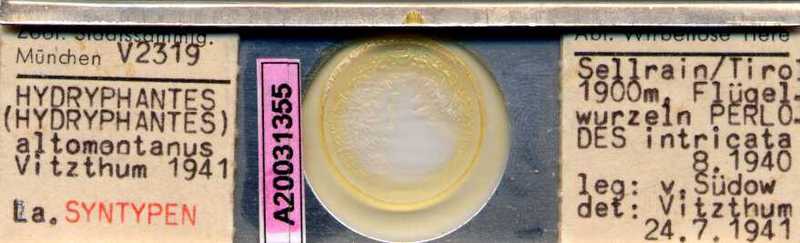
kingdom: Animalia
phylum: Arthropoda
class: Arachnida
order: Trombidiformes
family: Hydryphantidae
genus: Hydryphantes
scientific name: Hydryphantes
